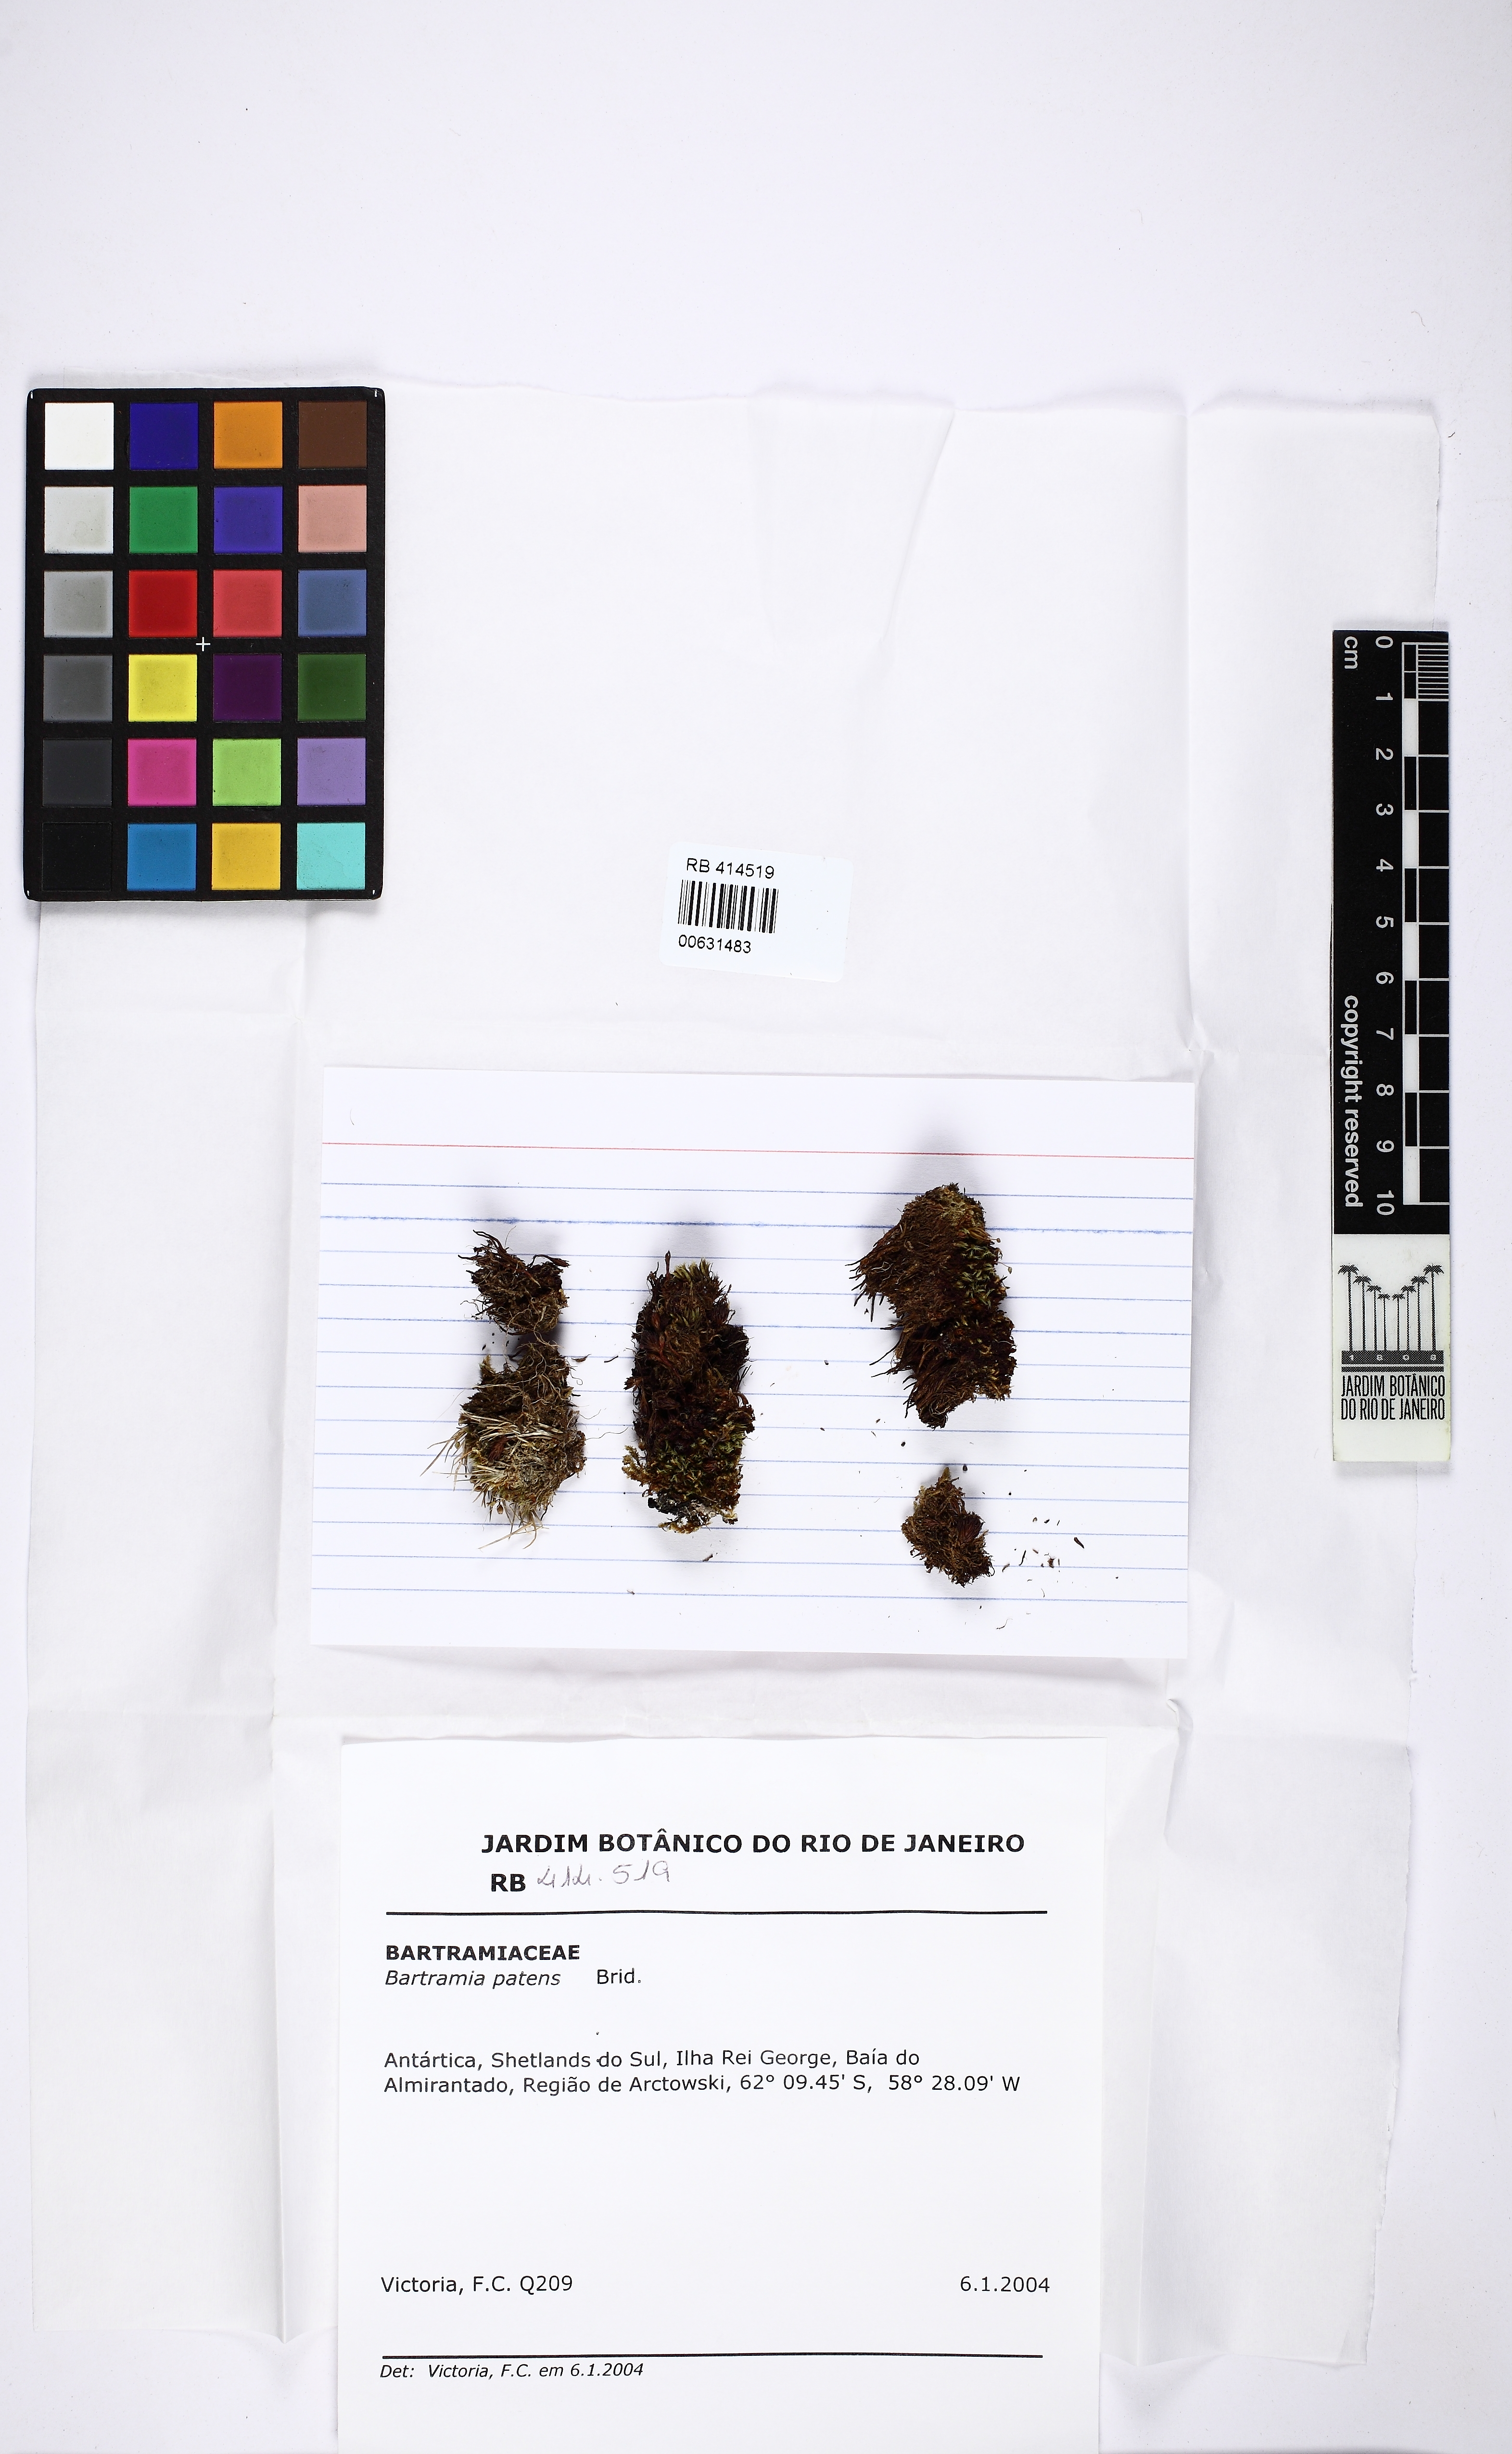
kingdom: Plantae
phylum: Bryophyta
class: Bryopsida
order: Bartramiales
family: Bartramiaceae
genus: Bartramia
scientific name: Bartramia ithyphylla
